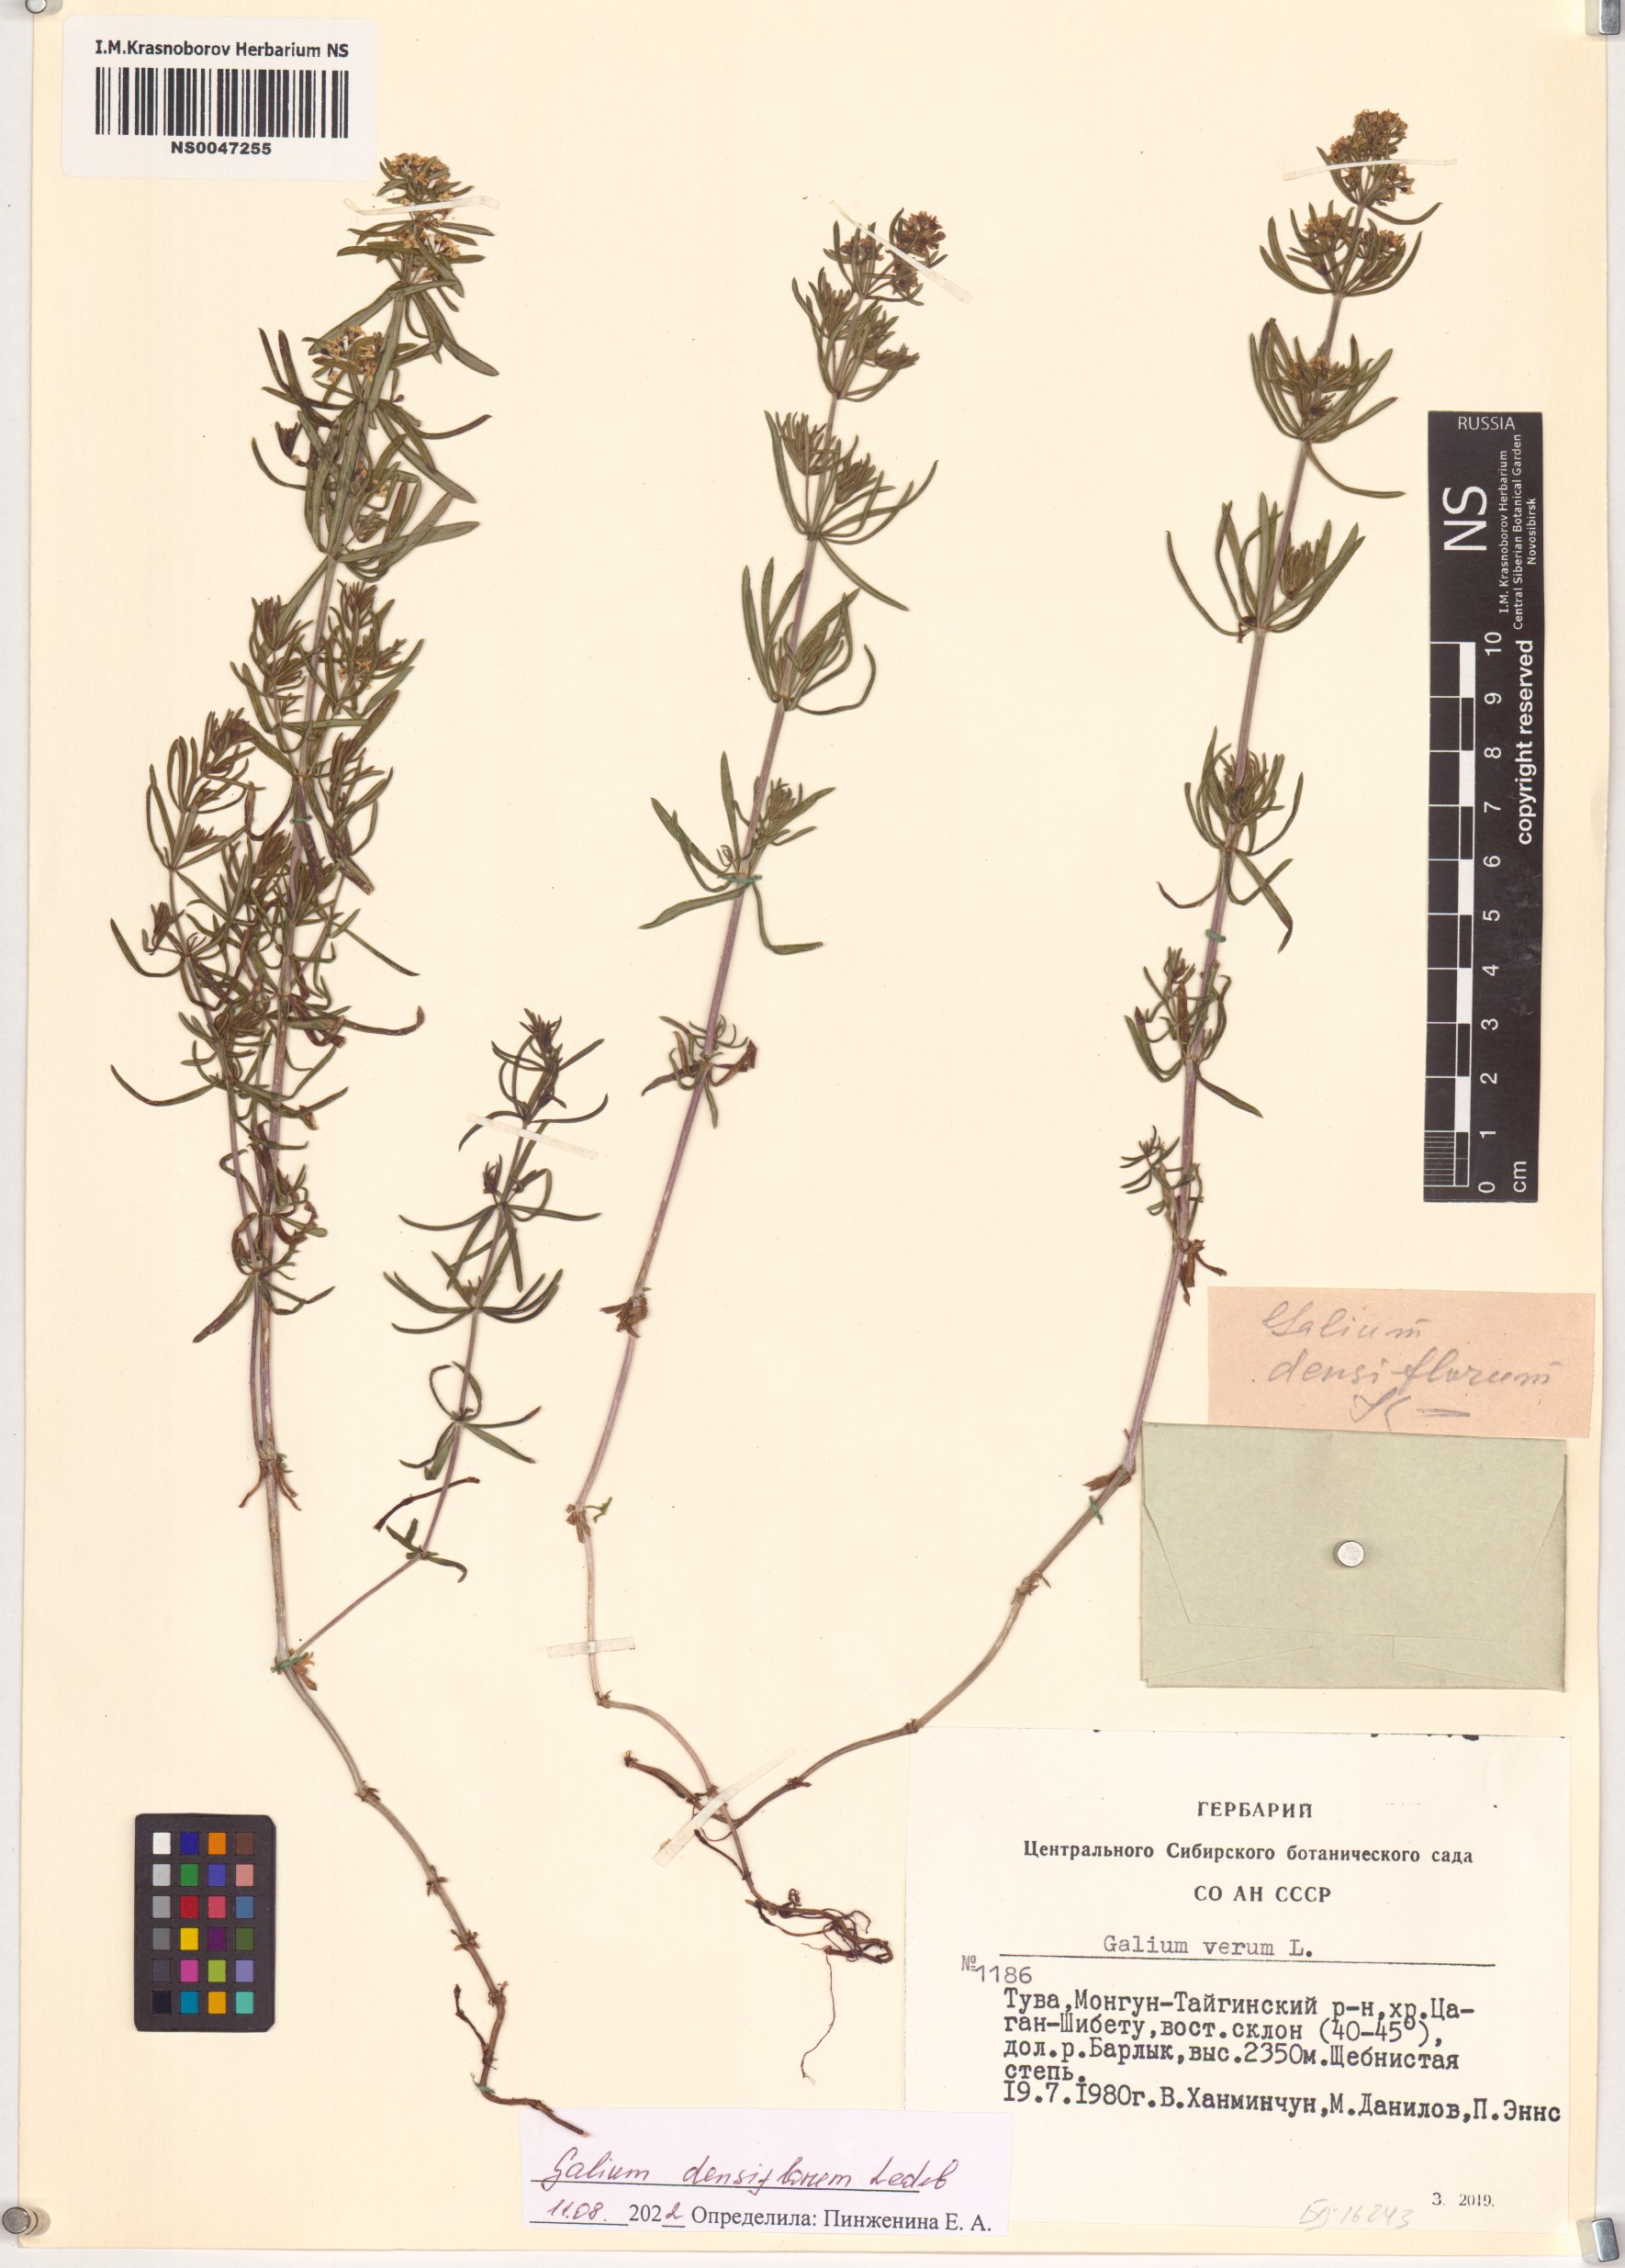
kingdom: Plantae
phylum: Tracheophyta
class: Magnoliopsida
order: Gentianales
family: Rubiaceae
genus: Galium
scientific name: Galium densiflorum
